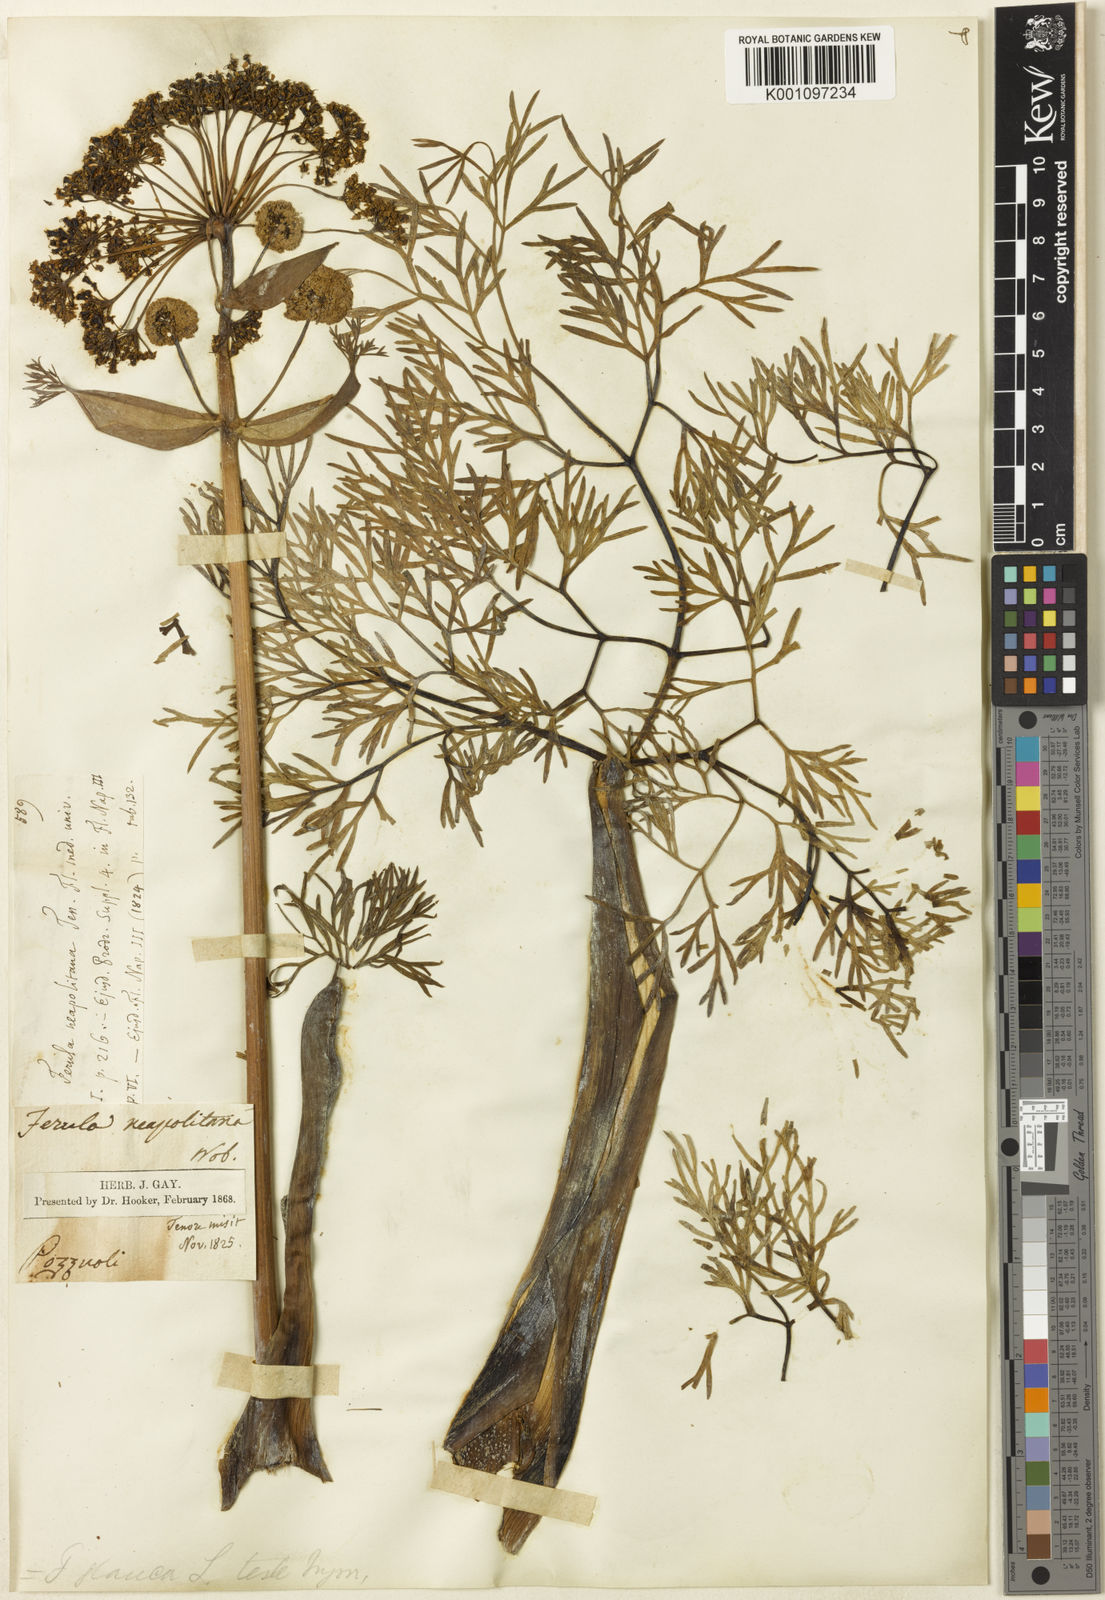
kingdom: Plantae
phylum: Tracheophyta
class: Magnoliopsida
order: Apiales
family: Apiaceae
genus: Ferula
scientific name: Ferula glauca
